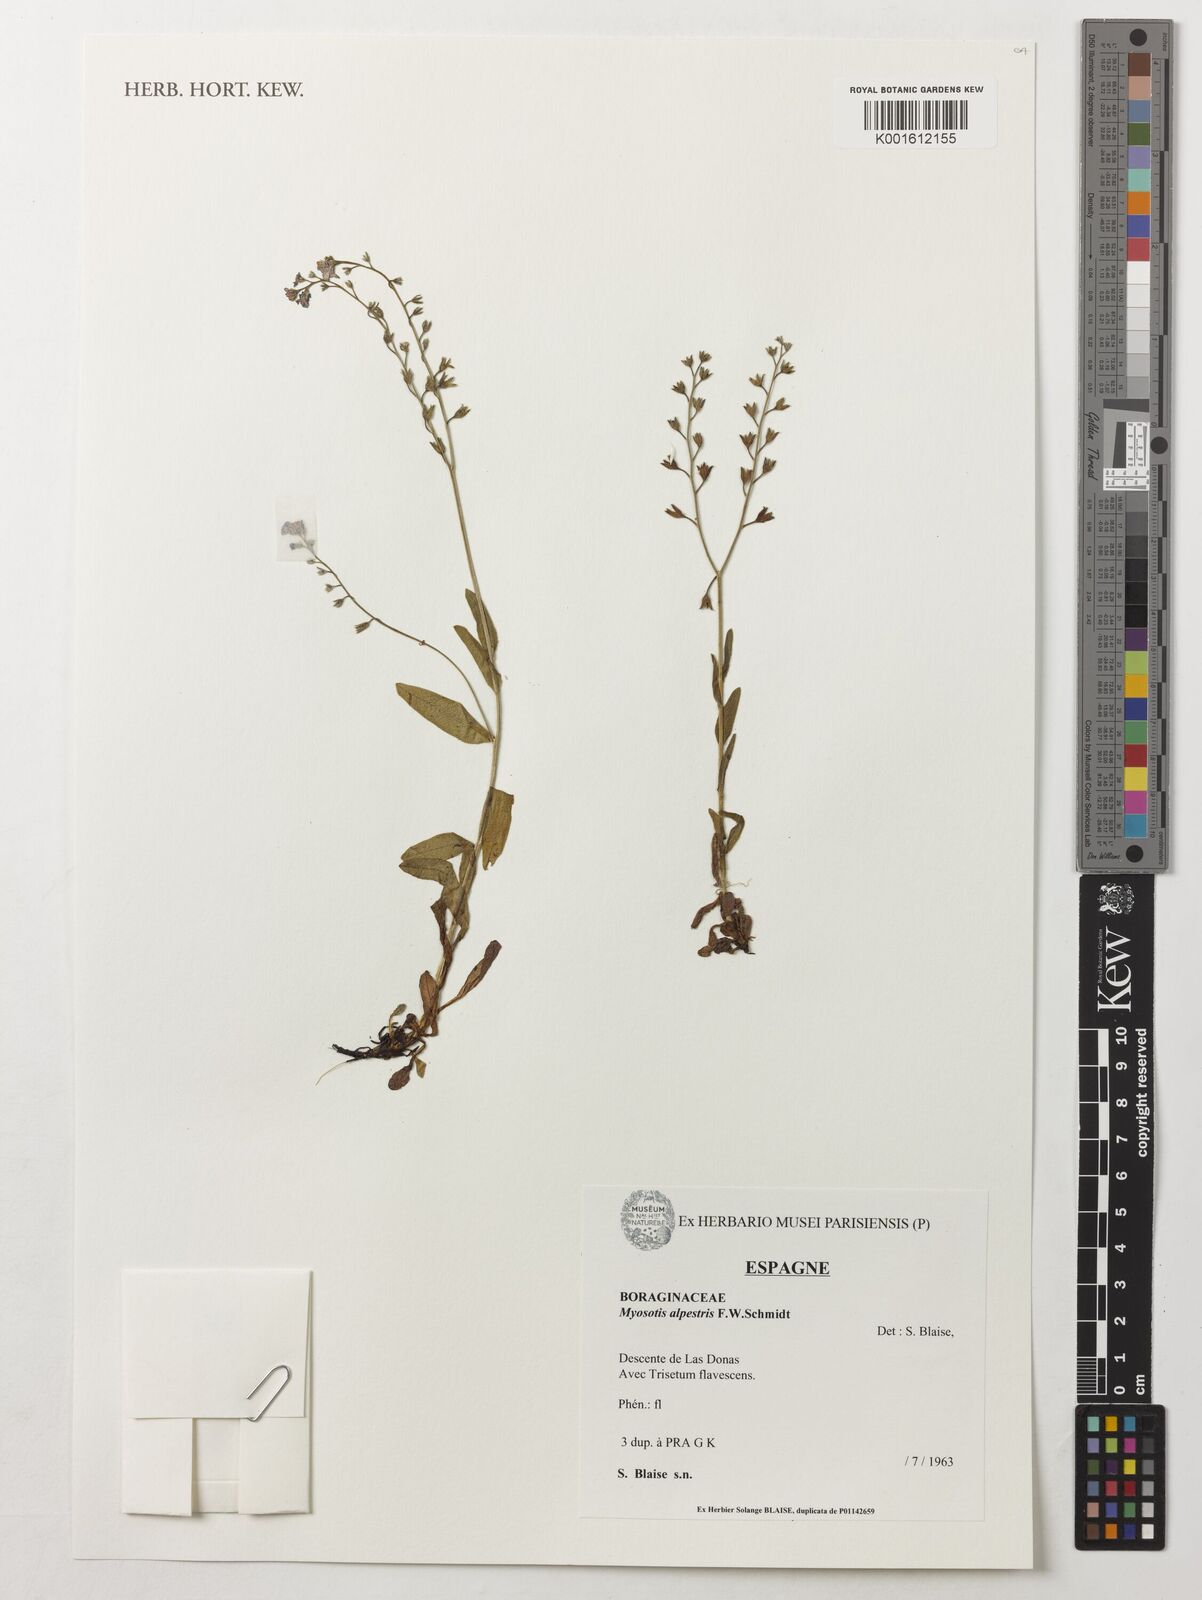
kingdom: Plantae
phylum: Tracheophyta
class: Magnoliopsida
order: Boraginales
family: Boraginaceae
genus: Myosotis
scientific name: Myosotis alpestris
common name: Alpine forget-me-not
